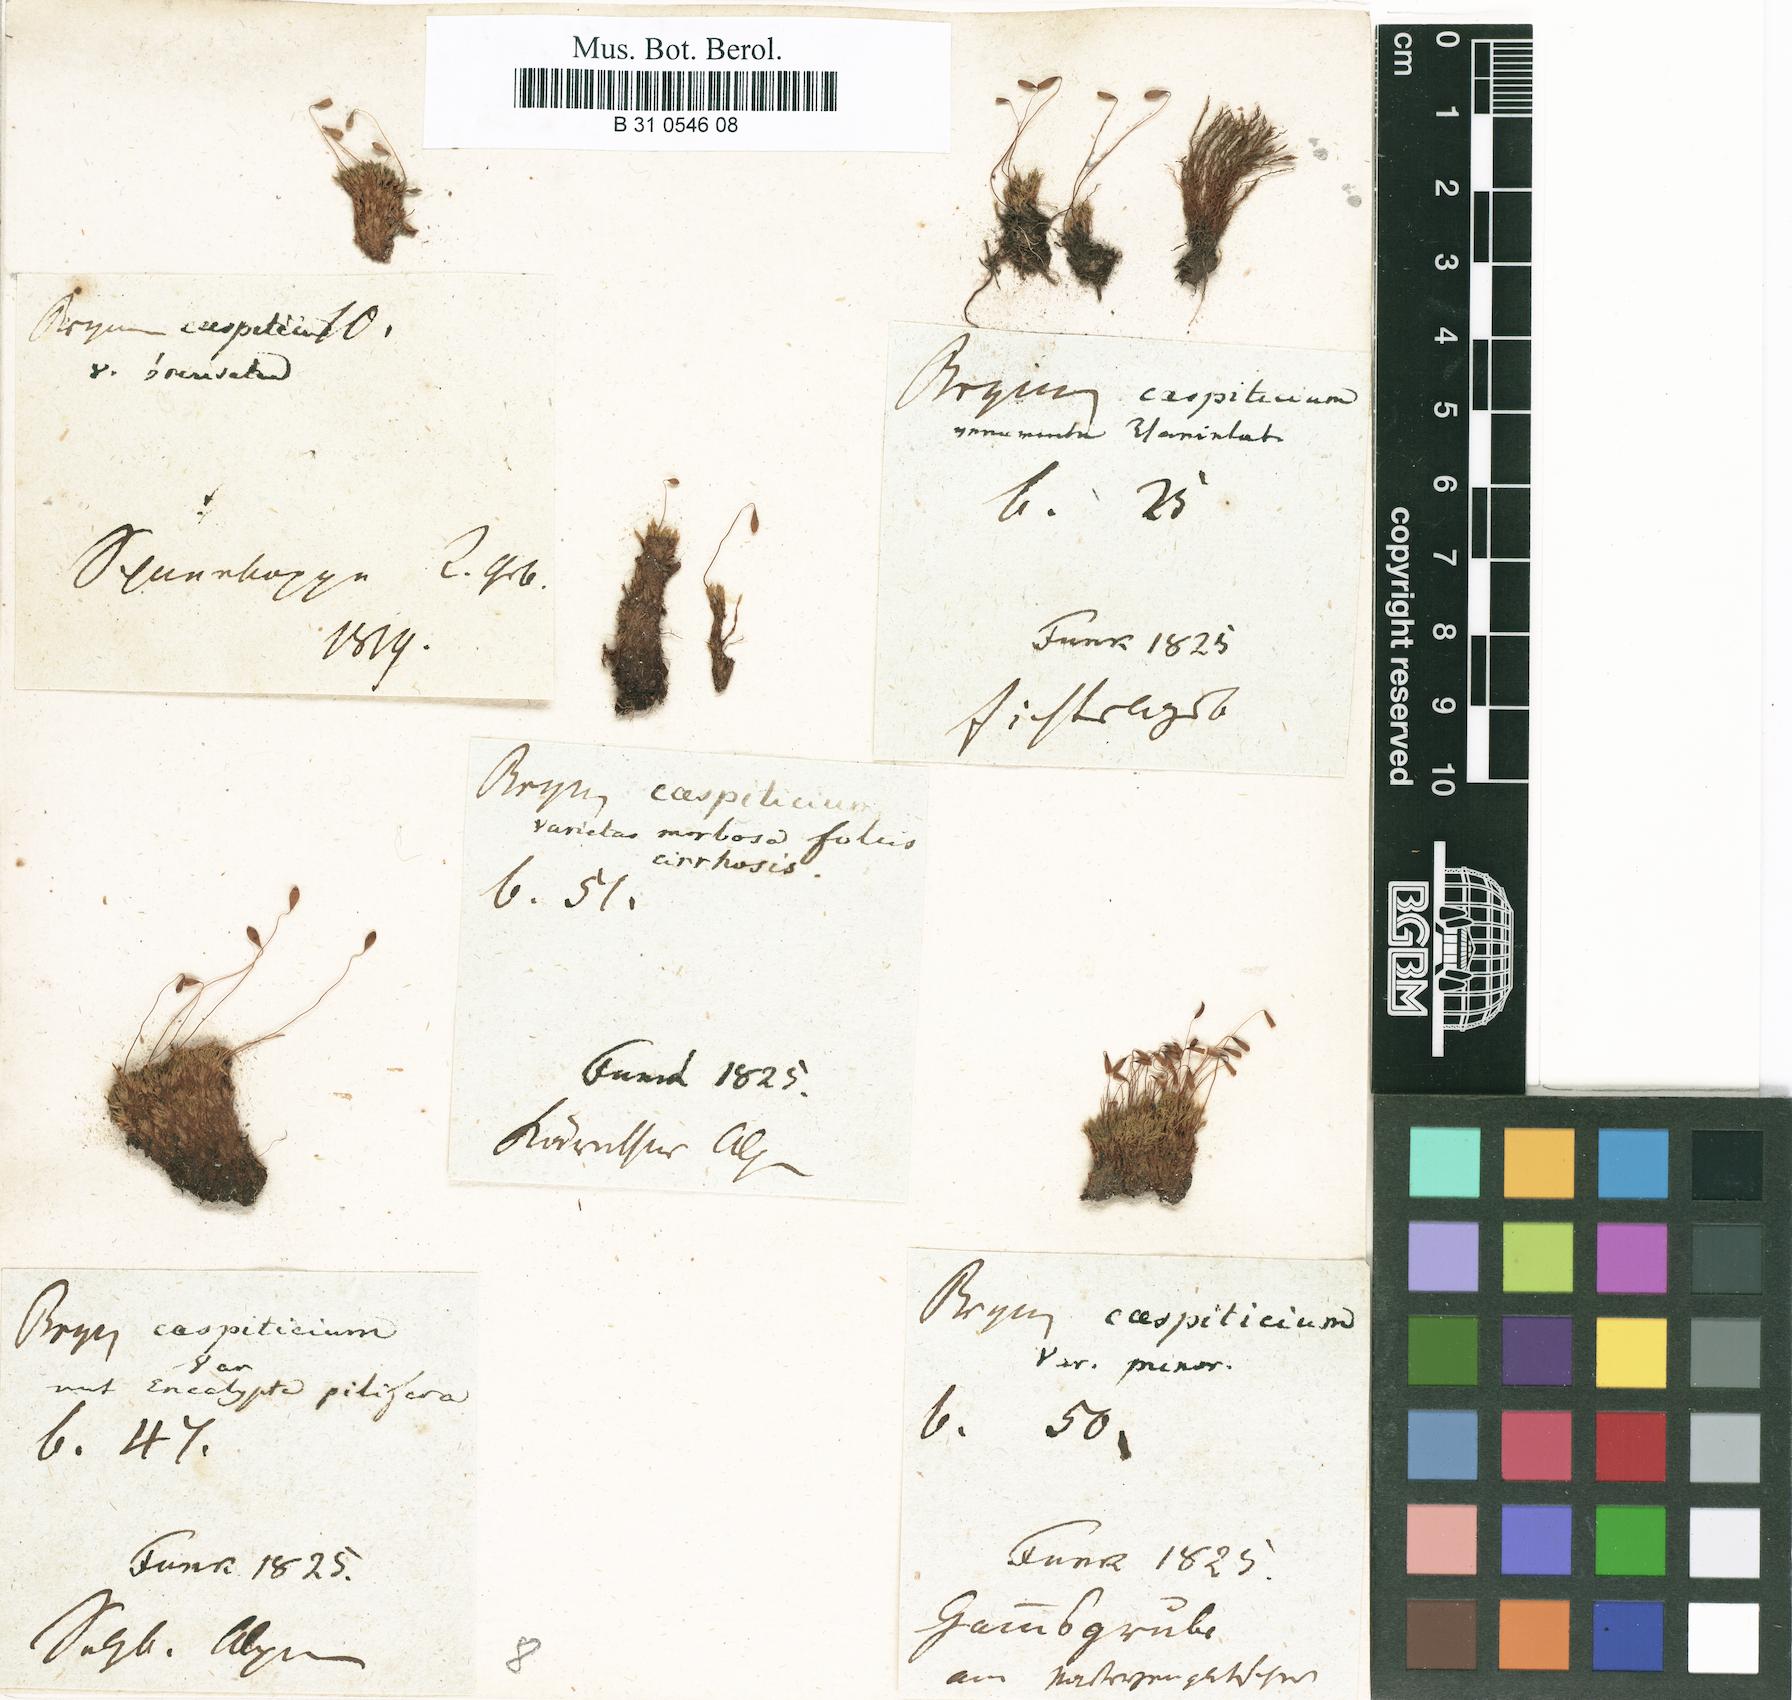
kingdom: Plantae
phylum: Bryophyta
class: Bryopsida
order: Bryales
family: Bryaceae
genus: Gemmabryum
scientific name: Gemmabryum caespiticium
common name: Handbell moss
